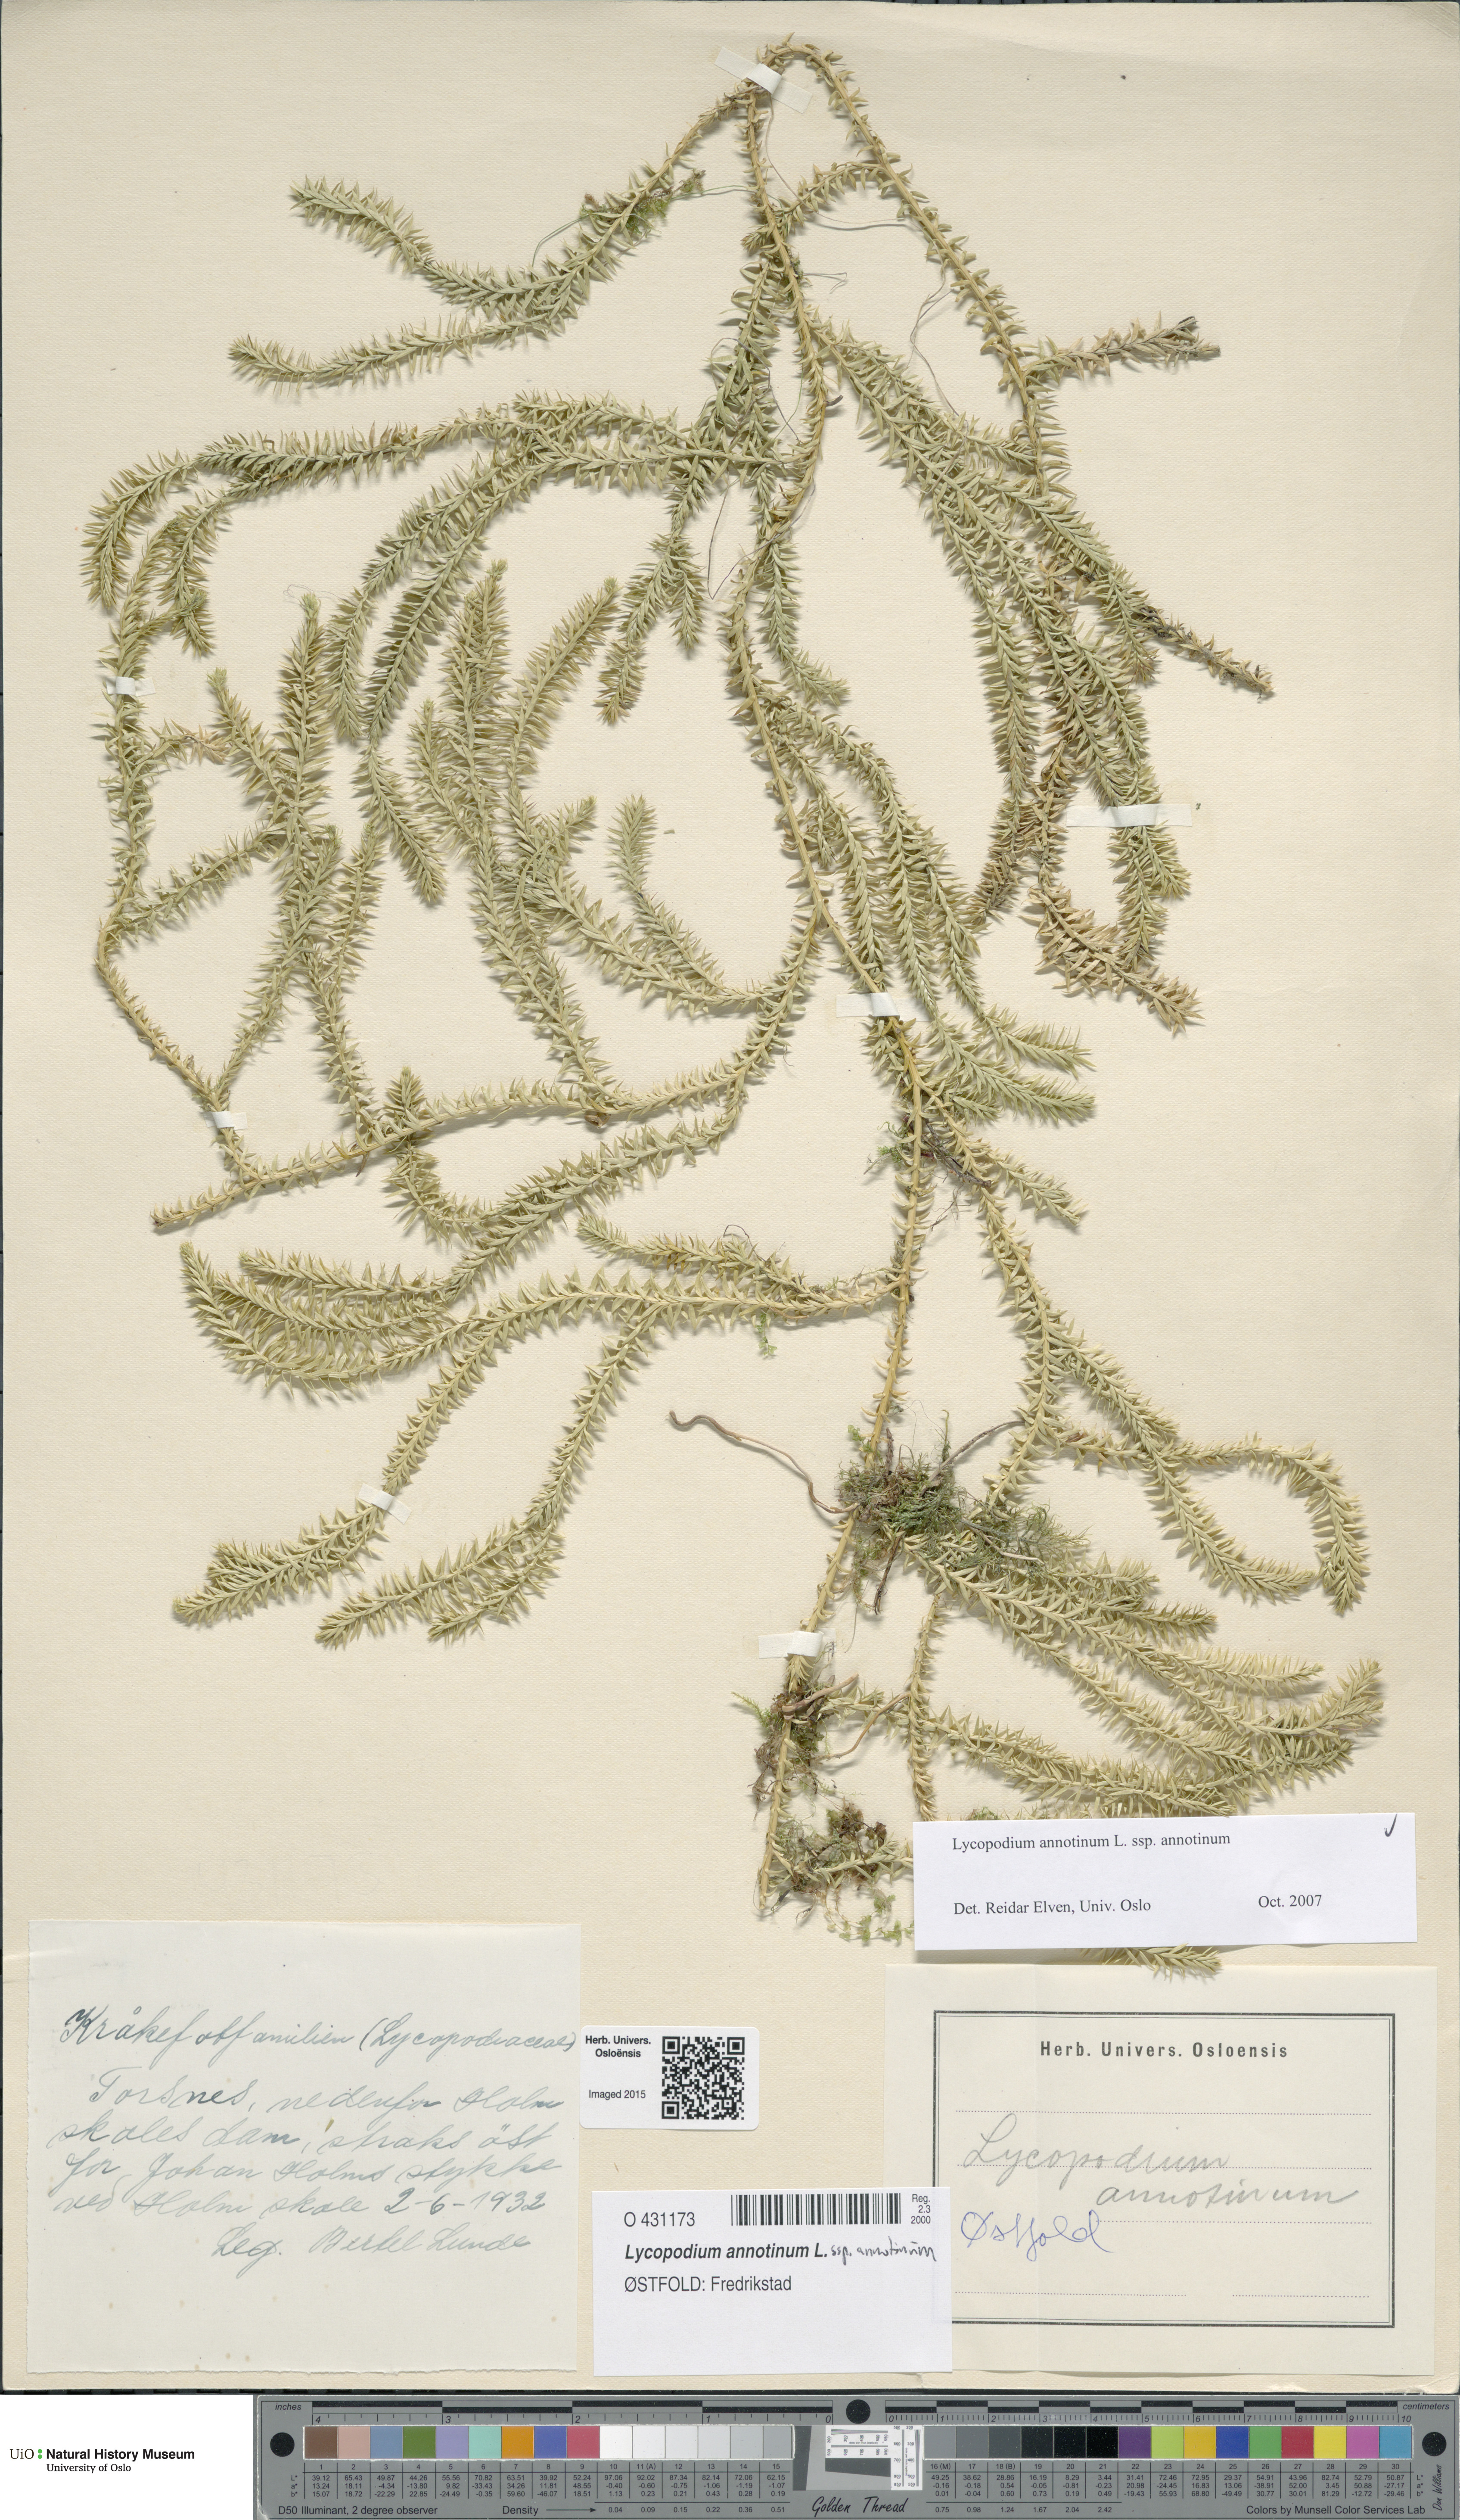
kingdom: Plantae
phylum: Tracheophyta
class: Lycopodiopsida
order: Lycopodiales
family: Lycopodiaceae
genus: Spinulum
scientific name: Spinulum annotinum
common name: Interrupted club-moss
